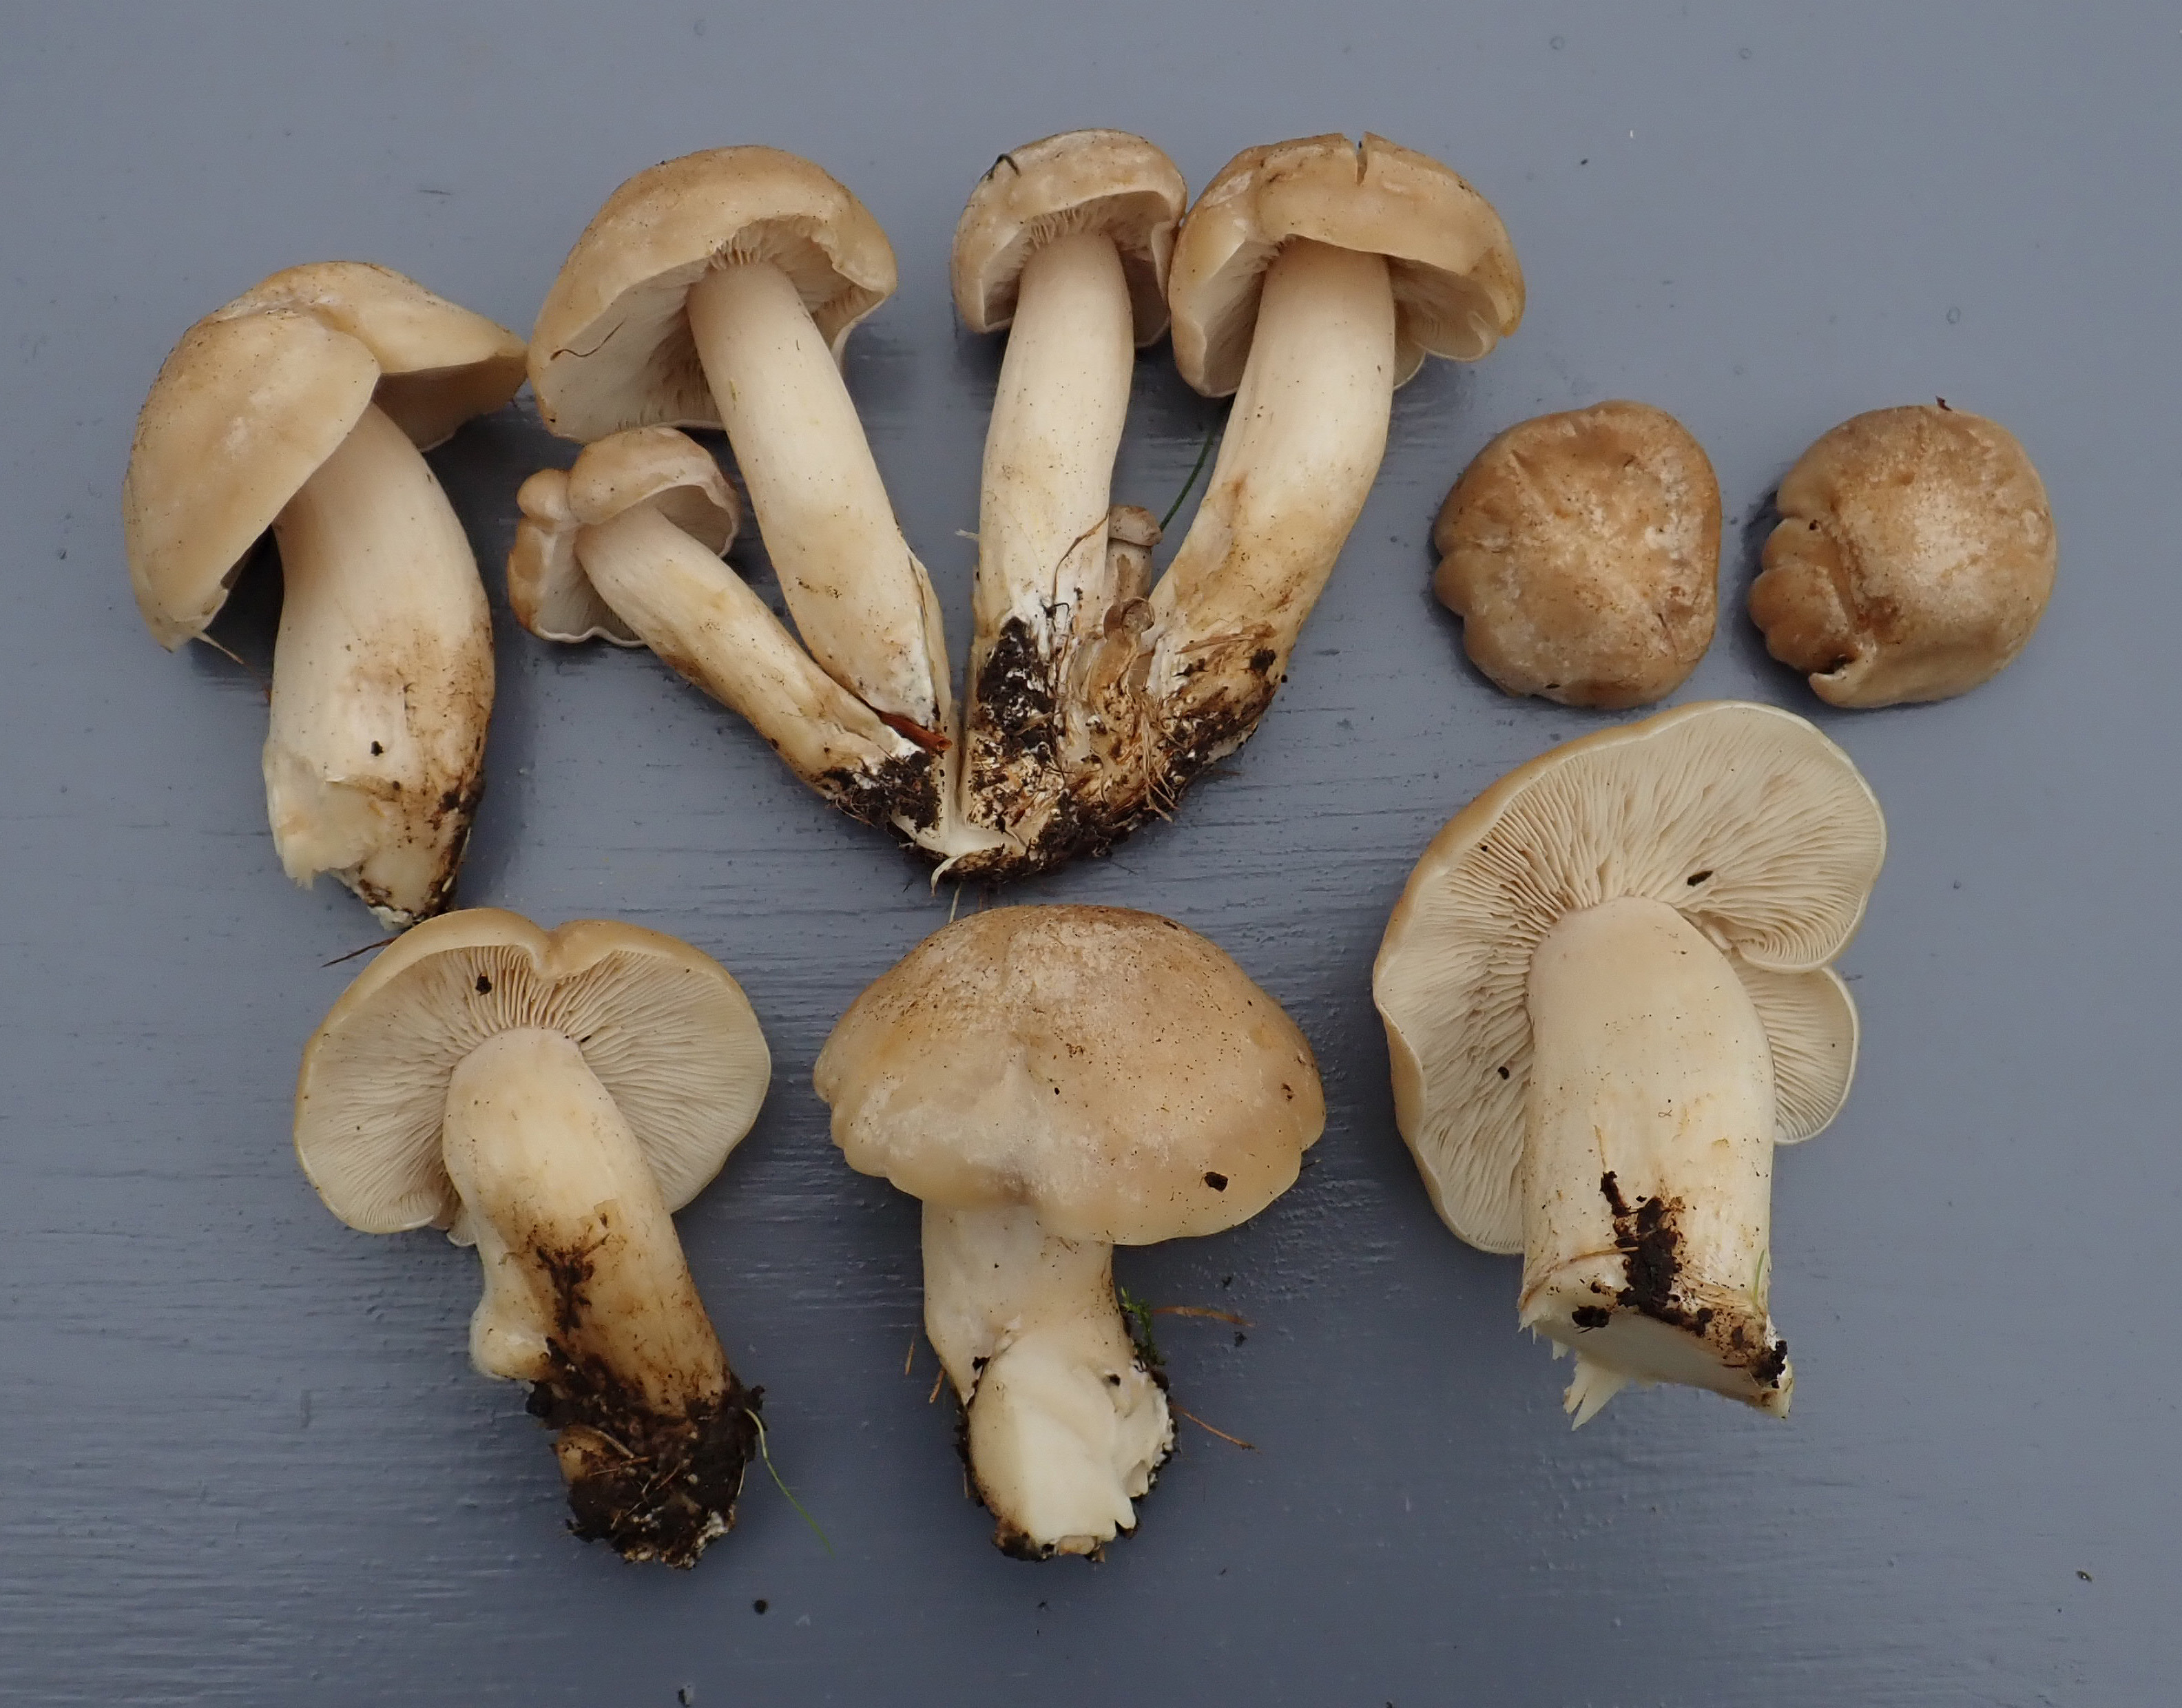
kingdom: Fungi
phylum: Basidiomycota
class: Agaricomycetes
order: Agaricales
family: Lyophyllaceae
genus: Lyophyllum
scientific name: Lyophyllum decastes
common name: Clustered domecap
